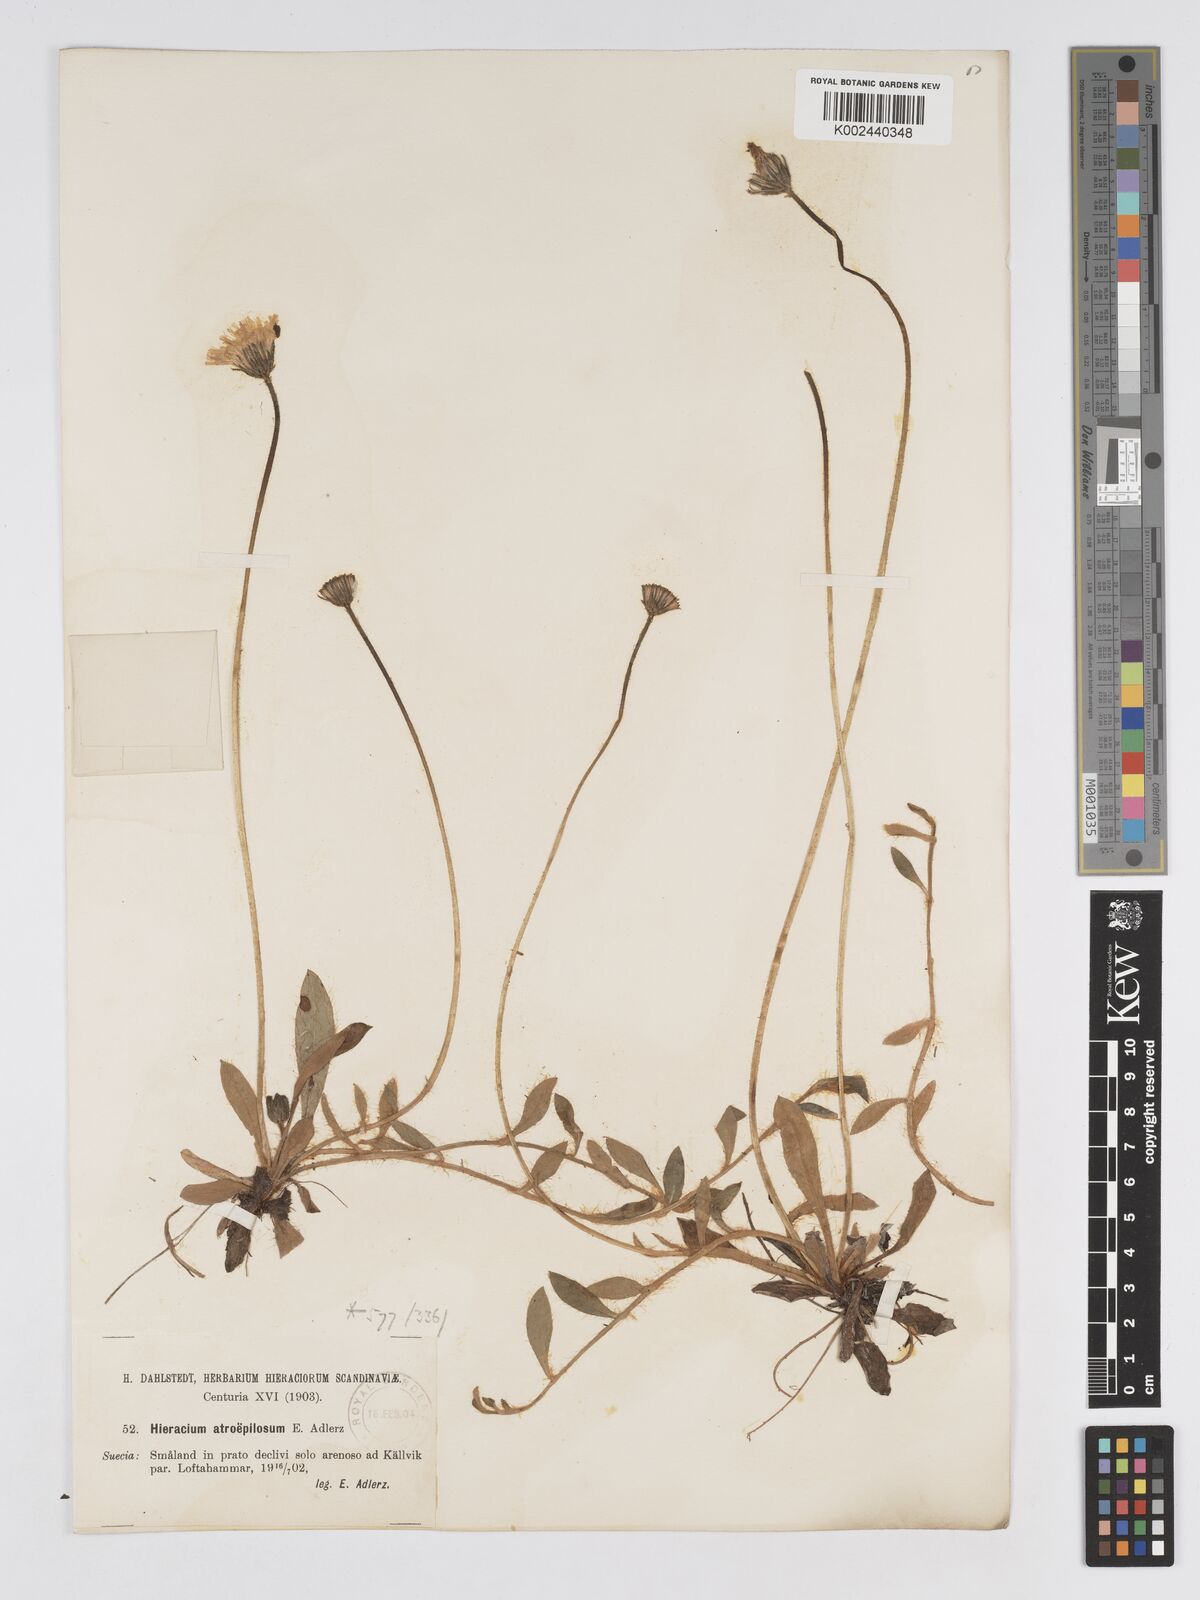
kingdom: Plantae
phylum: Tracheophyta
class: Magnoliopsida
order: Asterales
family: Asteraceae
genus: Pilosella
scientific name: Pilosella officinarum
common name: Mouse-ear hawkweed
